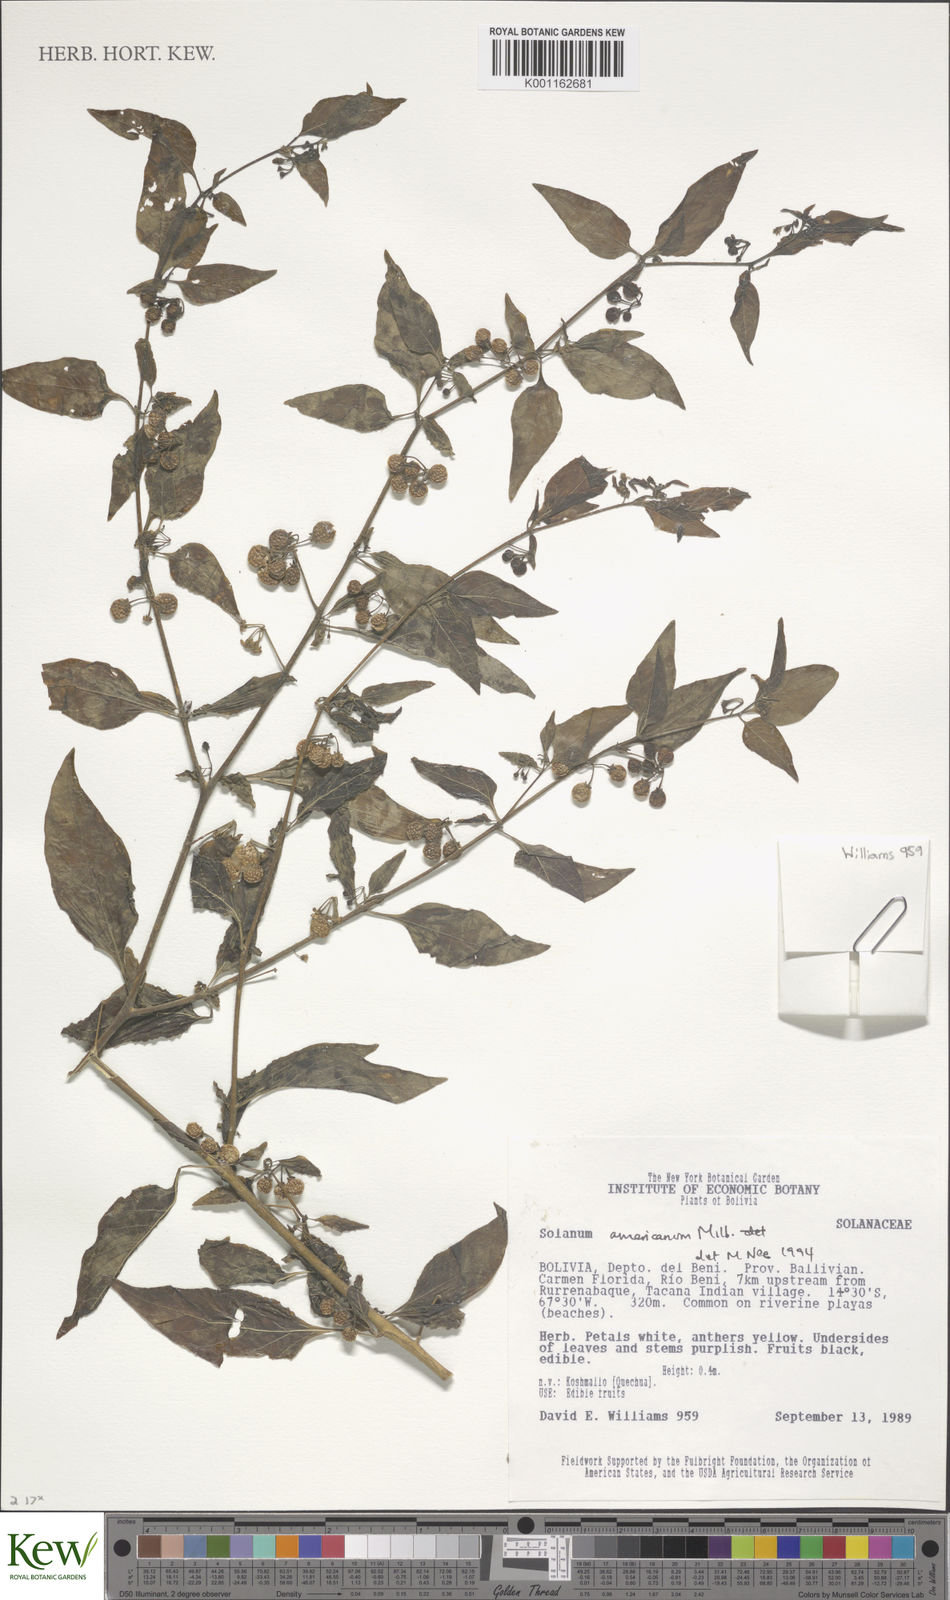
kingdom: Plantae
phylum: Tracheophyta
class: Magnoliopsida
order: Solanales
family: Solanaceae
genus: Solanum
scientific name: Solanum americanum
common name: American black nightshade
